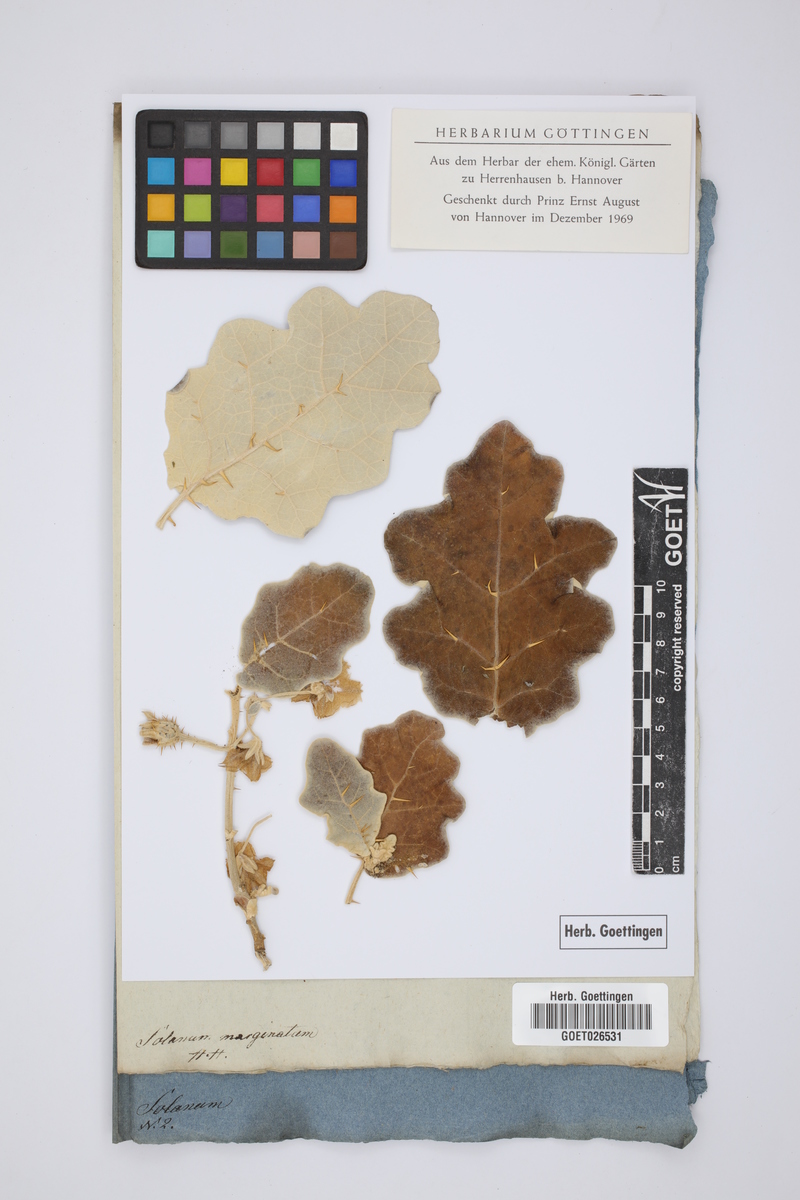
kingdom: Plantae
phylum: Tracheophyta
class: Magnoliopsida
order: Solanales
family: Solanaceae
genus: Solanum
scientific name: Solanum marginatum
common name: Purple african nightshade
